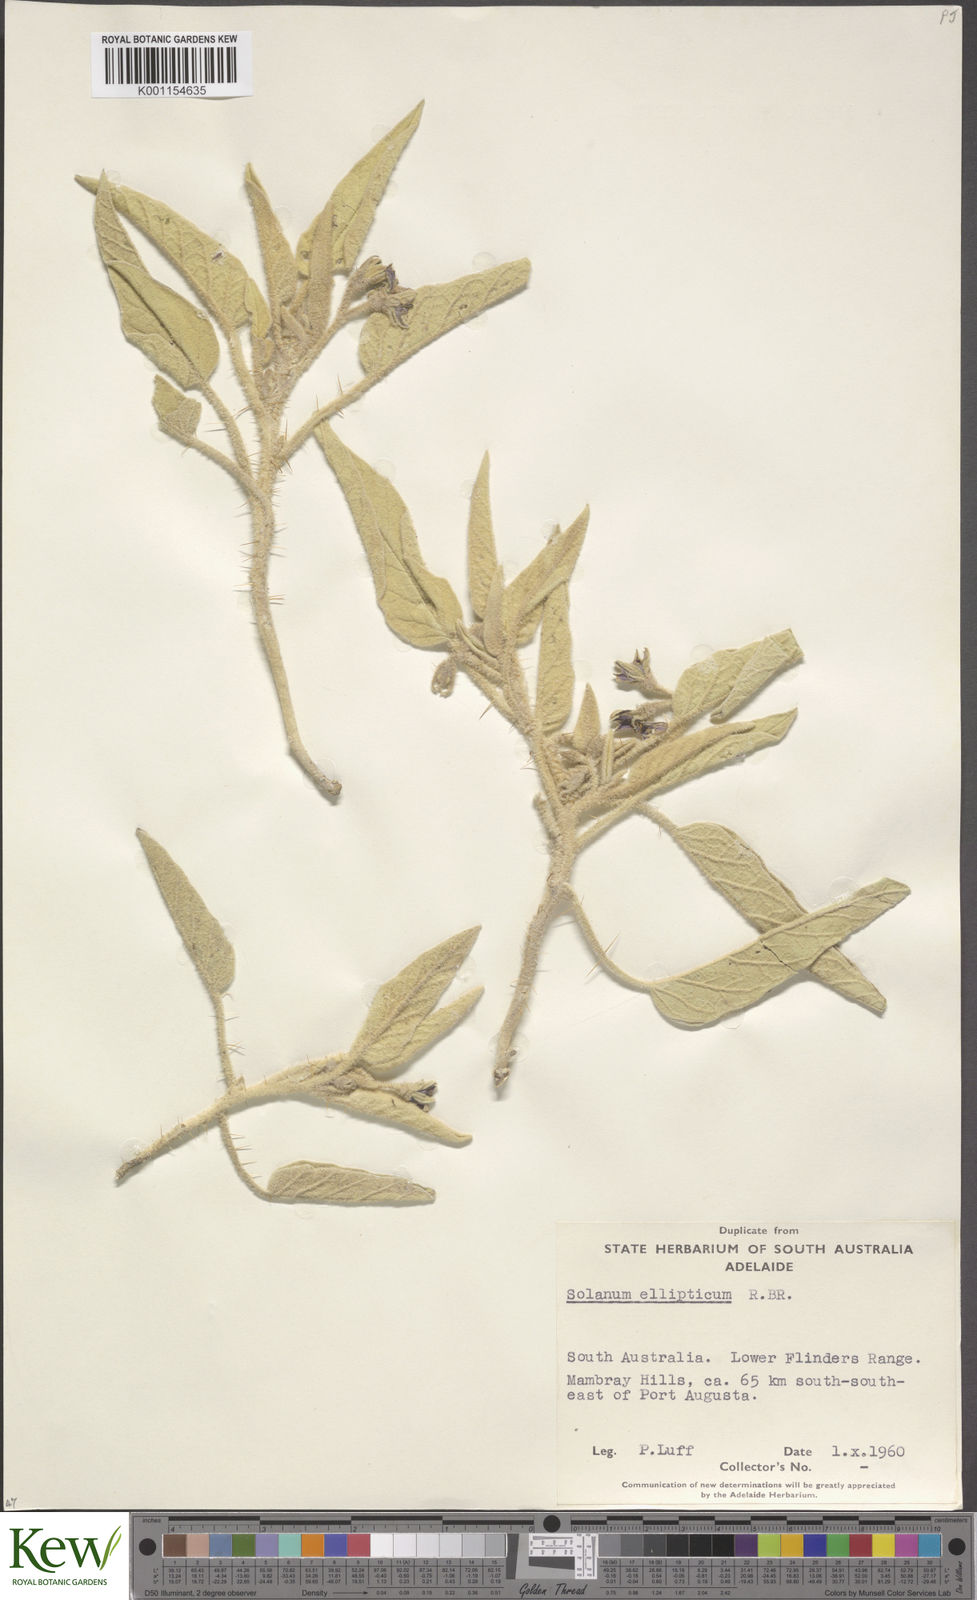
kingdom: Plantae
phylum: Tracheophyta
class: Magnoliopsida
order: Solanales
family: Solanaceae
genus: Solanum
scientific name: Solanum ellipticum
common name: Potato-bush
